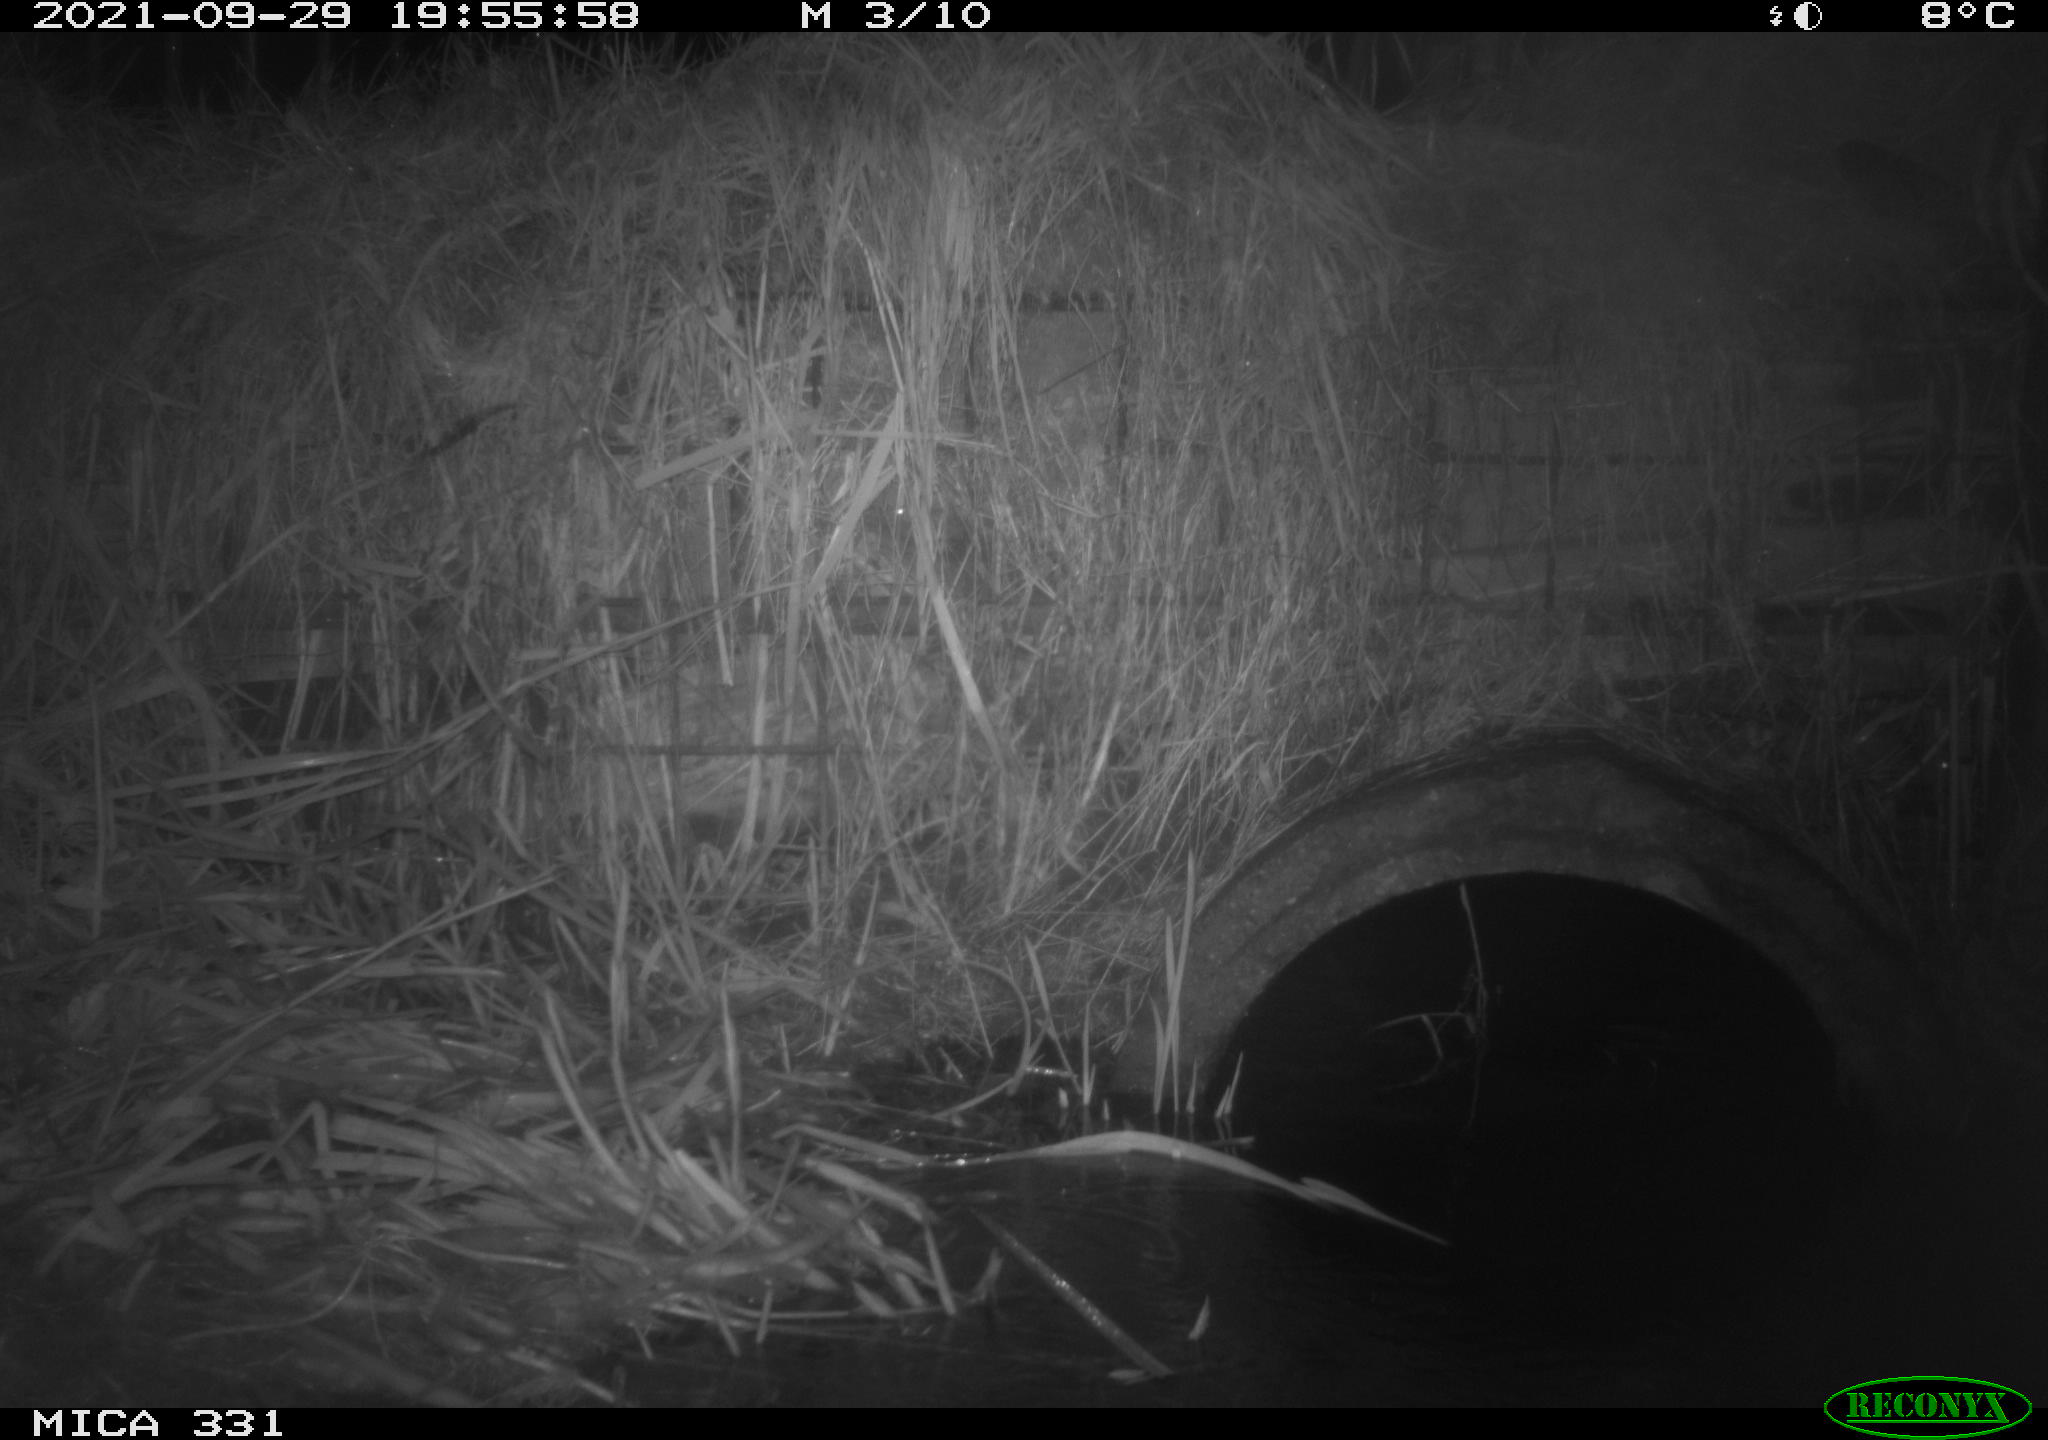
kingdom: Animalia
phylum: Chordata
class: Mammalia
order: Rodentia
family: Muridae
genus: Rattus
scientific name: Rattus norvegicus
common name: Brown rat
